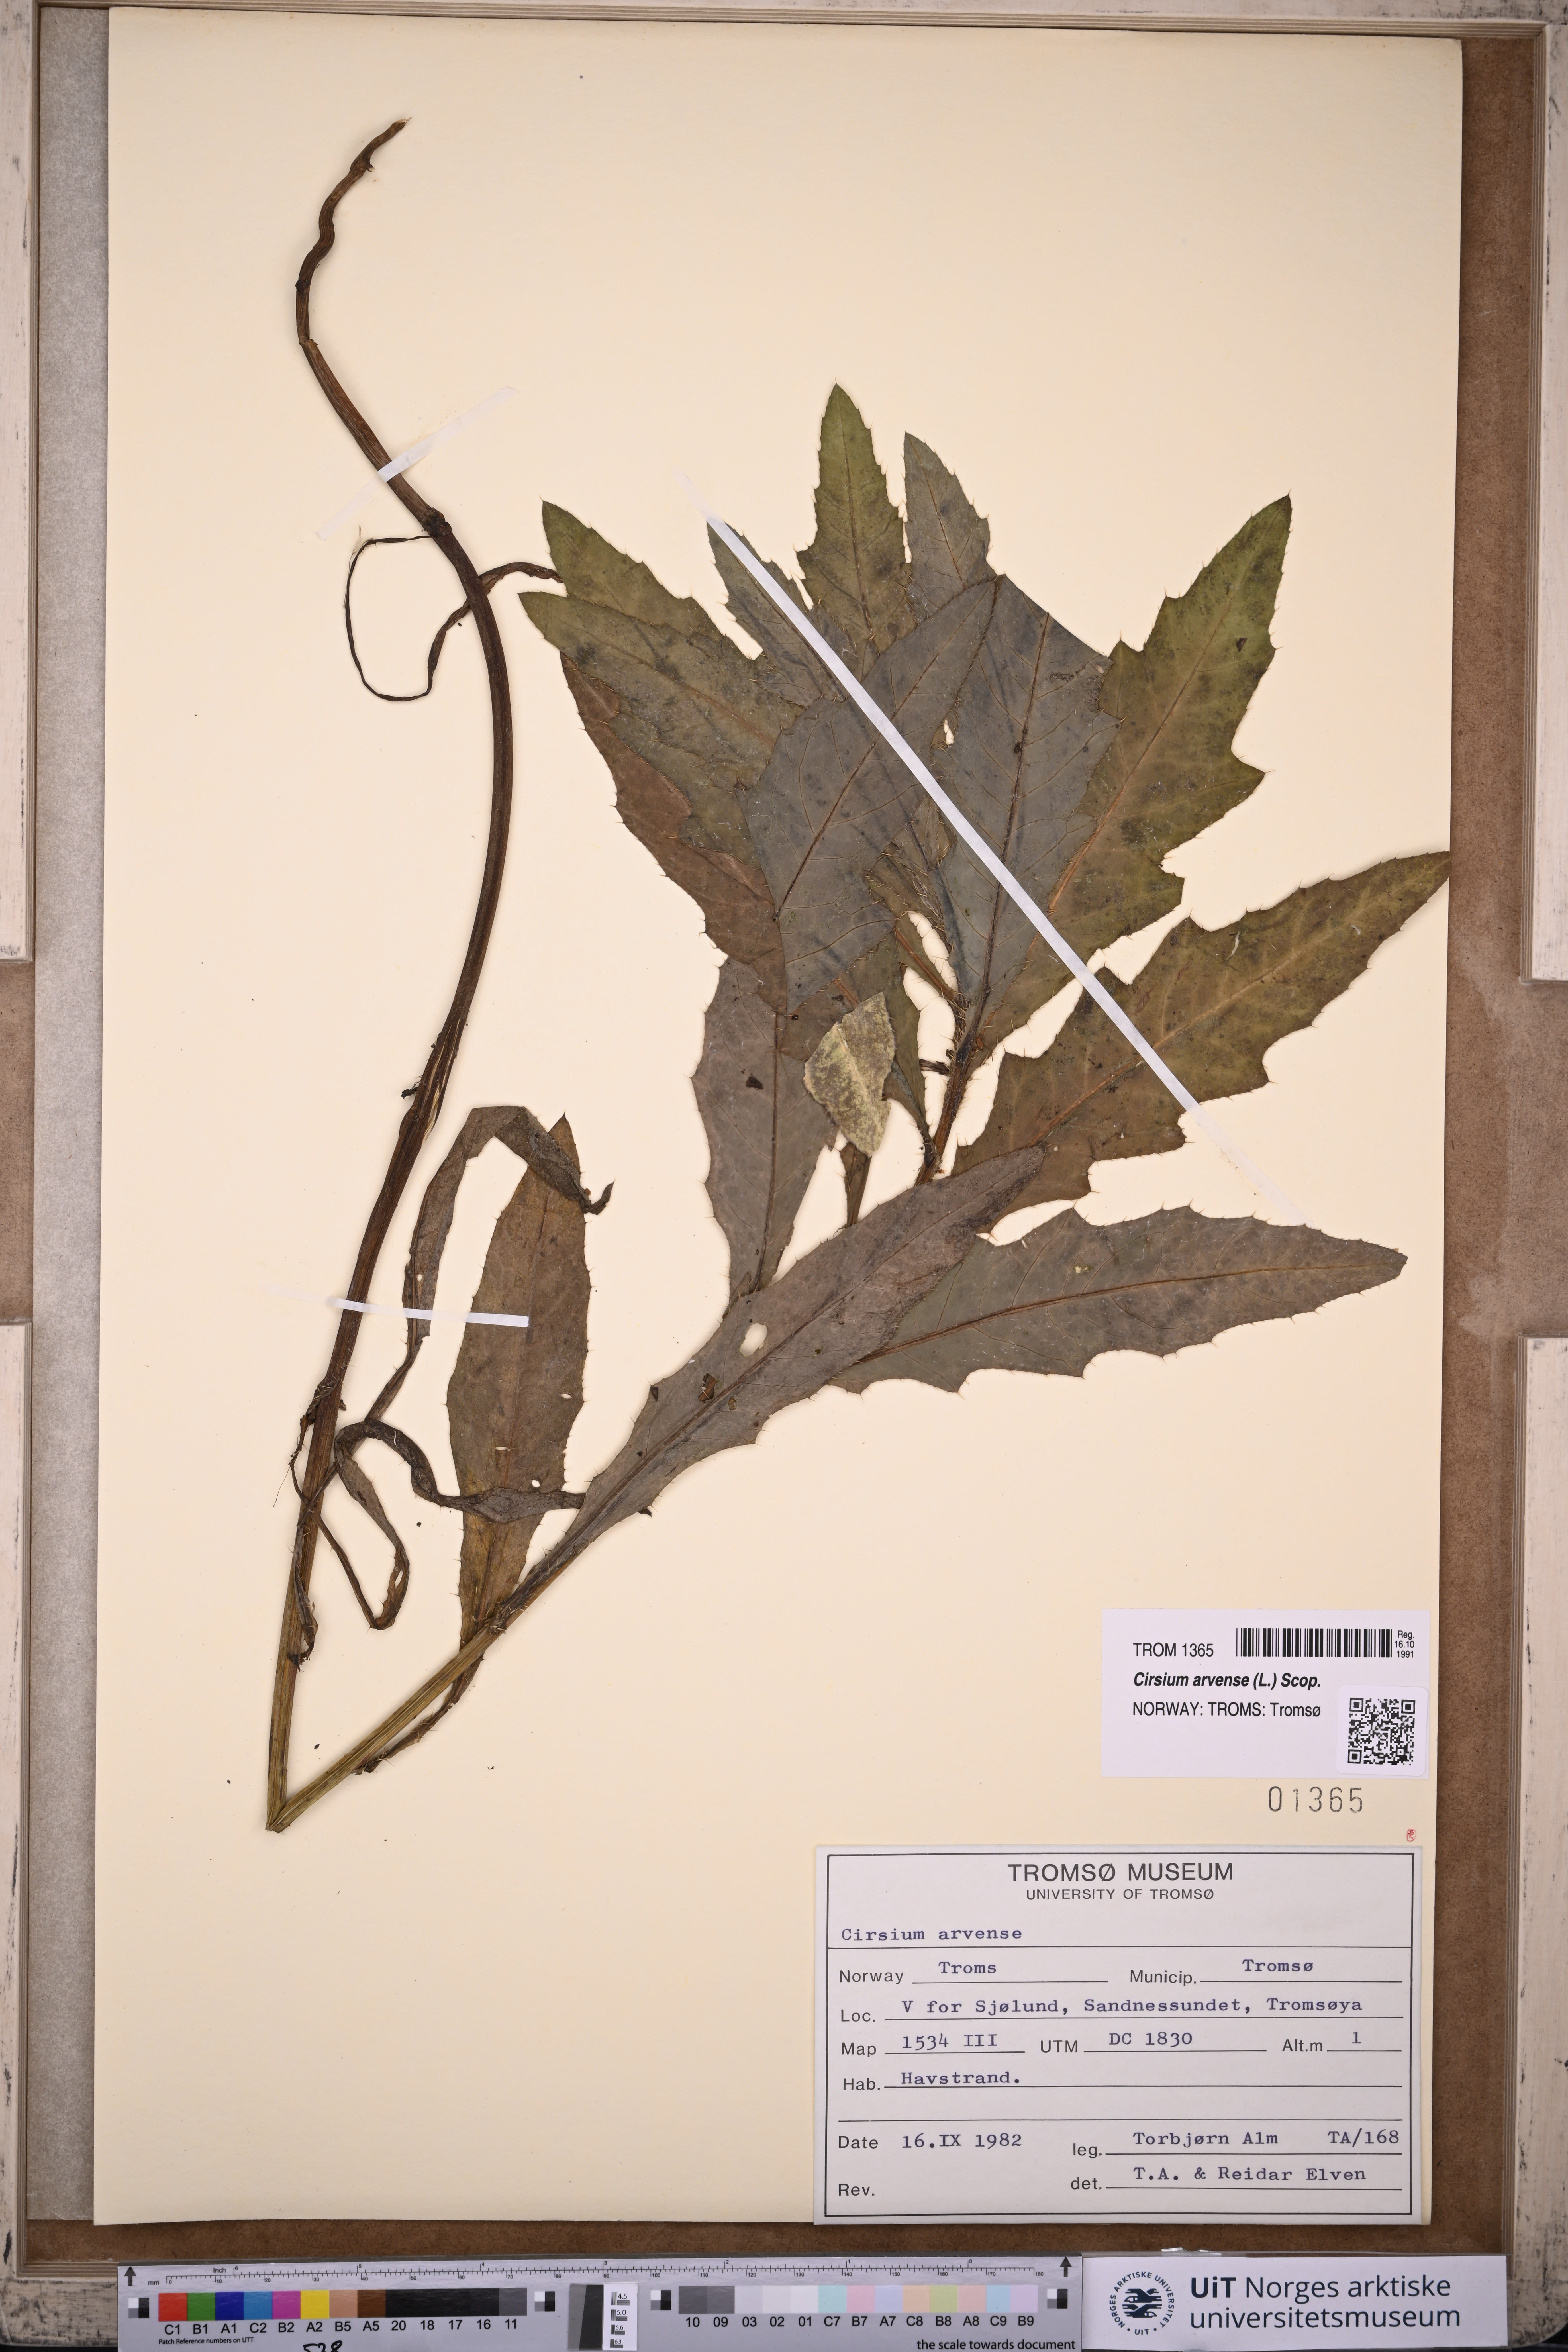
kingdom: Plantae
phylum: Tracheophyta
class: Magnoliopsida
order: Asterales
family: Asteraceae
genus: Cirsium
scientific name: Cirsium arvense
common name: Creeping thistle
